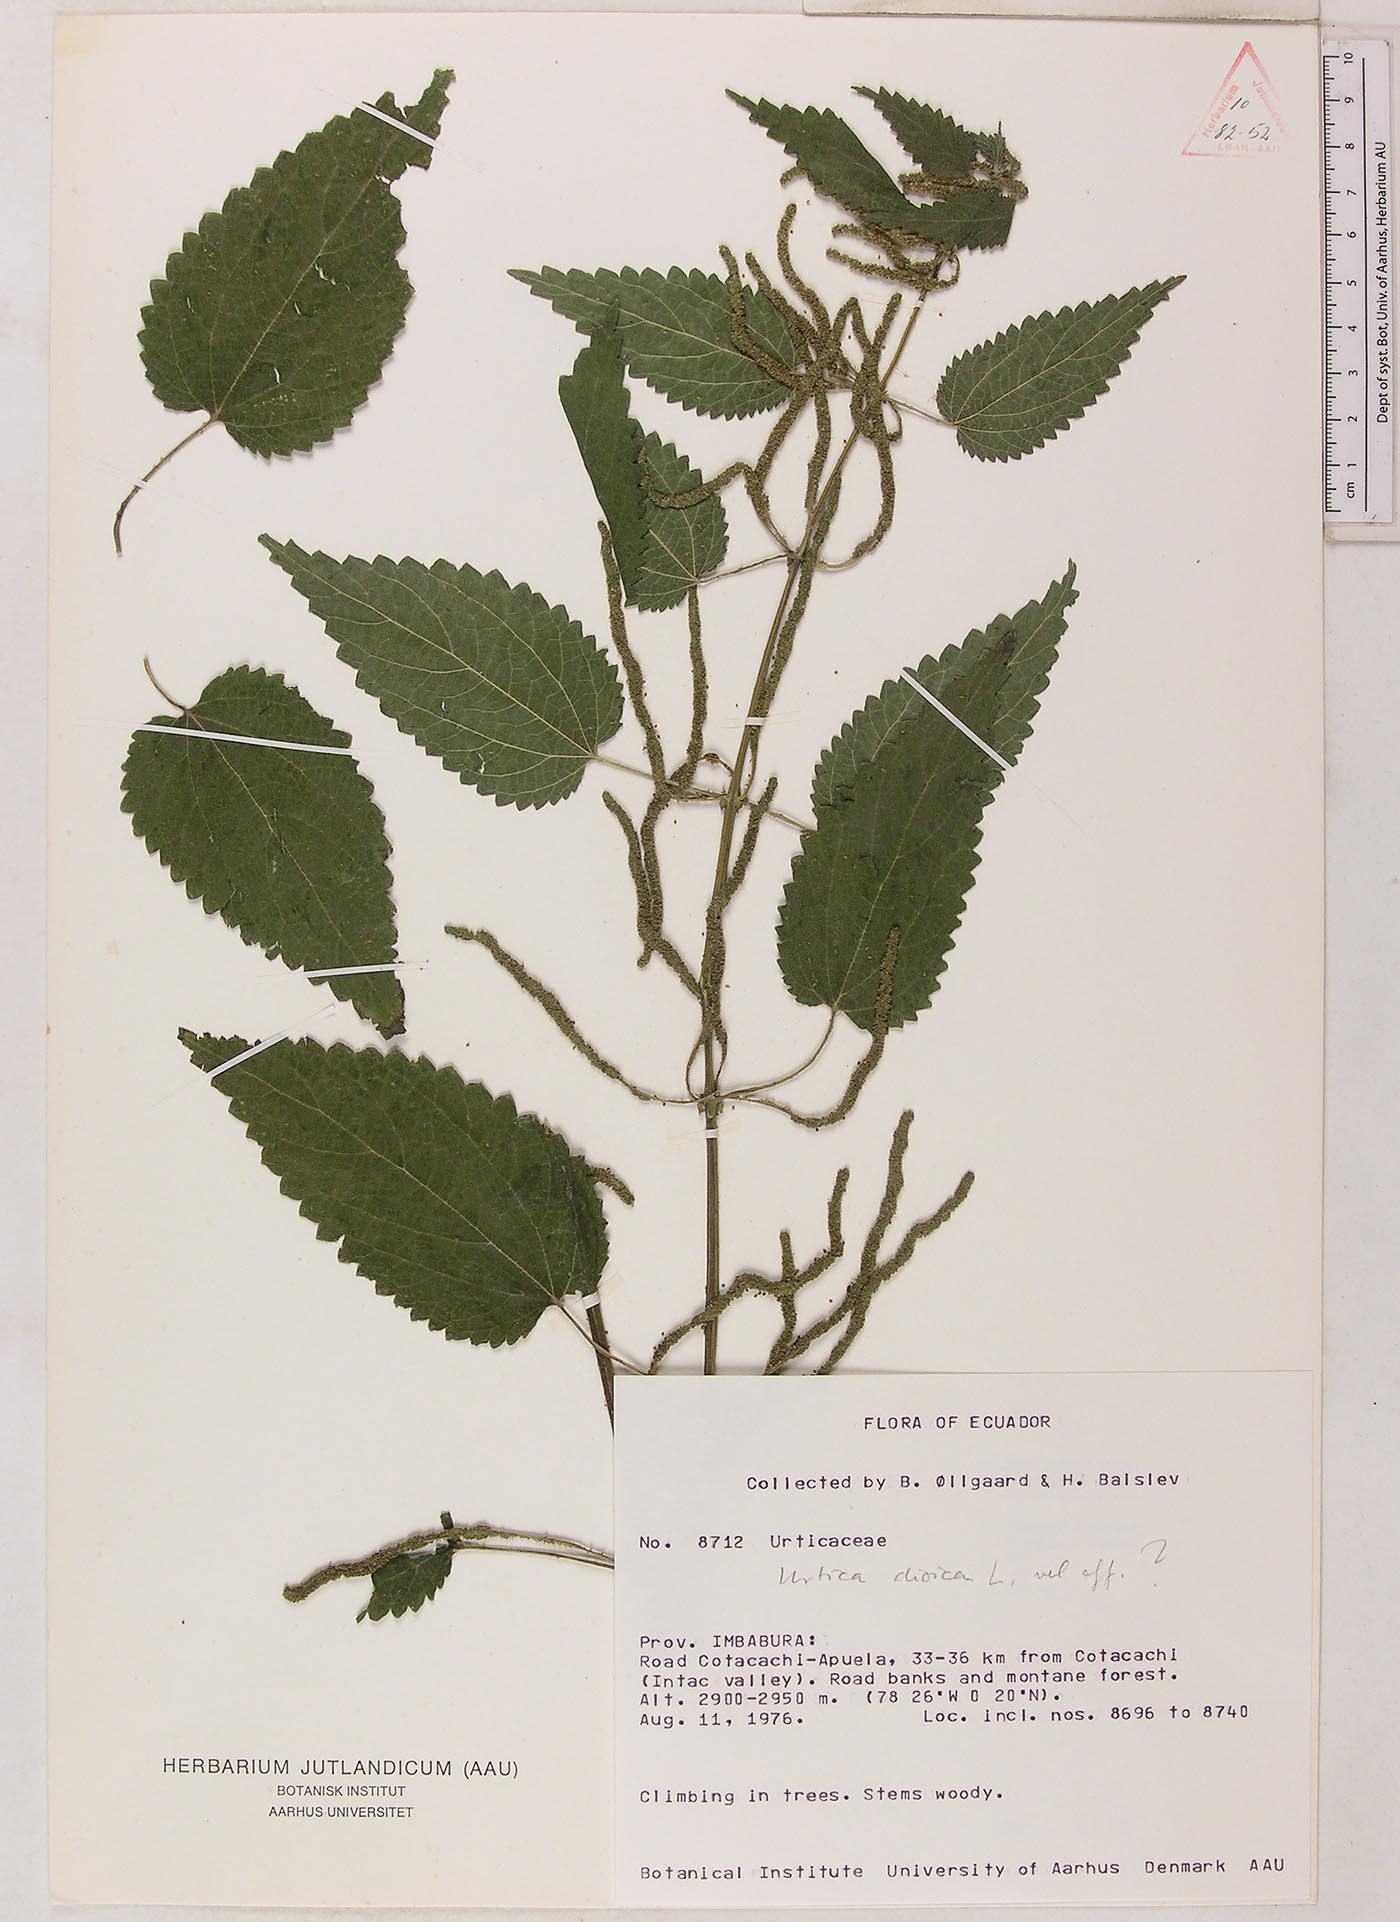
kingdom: Plantae
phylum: Tracheophyta
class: Magnoliopsida
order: Rosales
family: Urticaceae
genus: Urtica
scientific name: Urtica longispica
